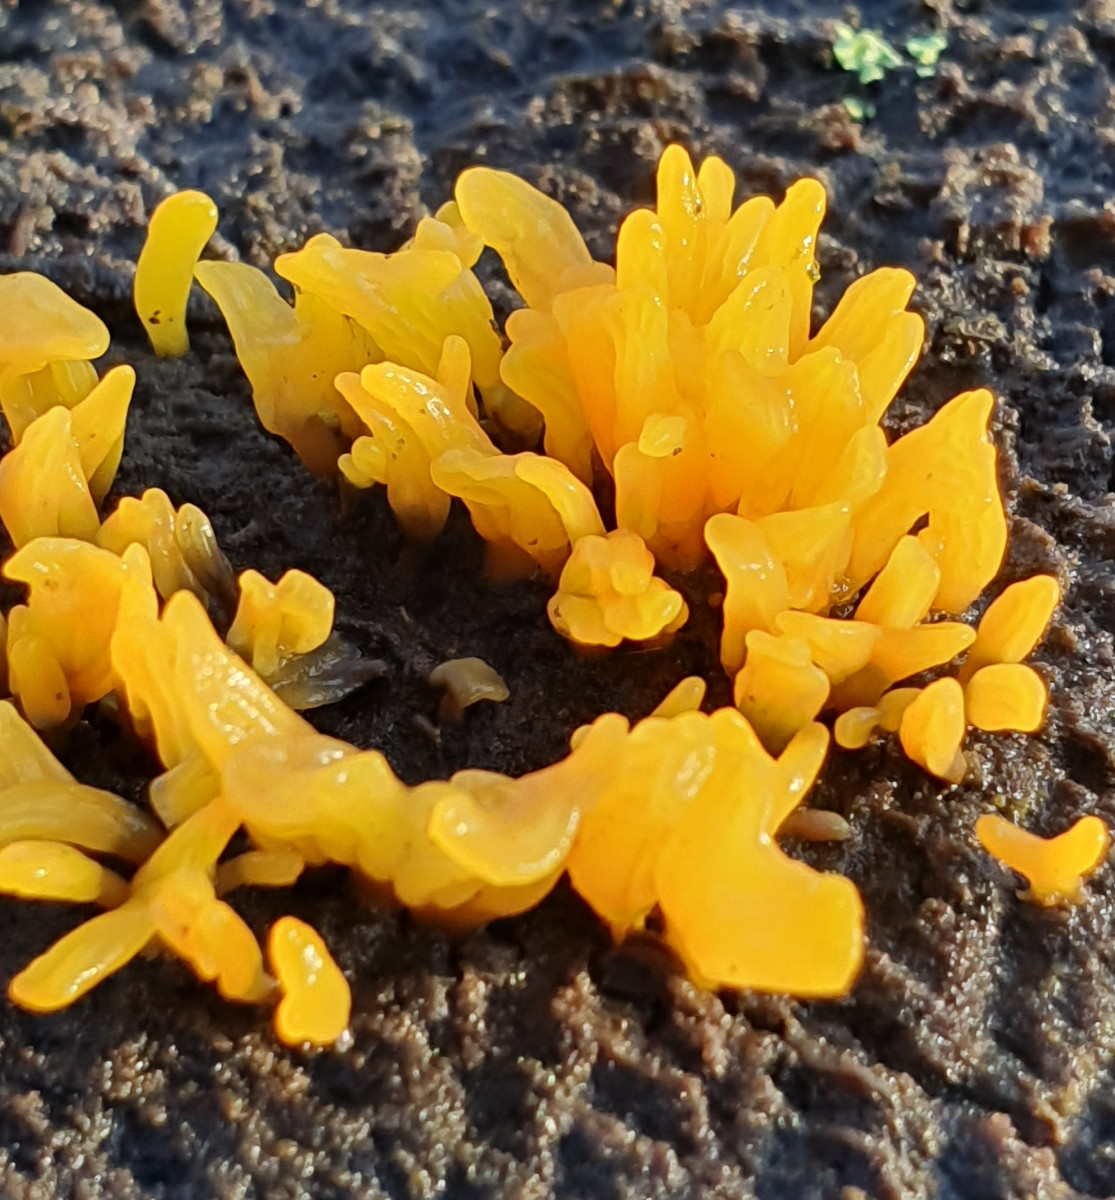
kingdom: Fungi
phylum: Basidiomycota
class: Dacrymycetes
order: Dacrymycetales
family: Dacrymycetaceae
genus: Calocera
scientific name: Calocera furcata
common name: fyrre-guldgaffel
